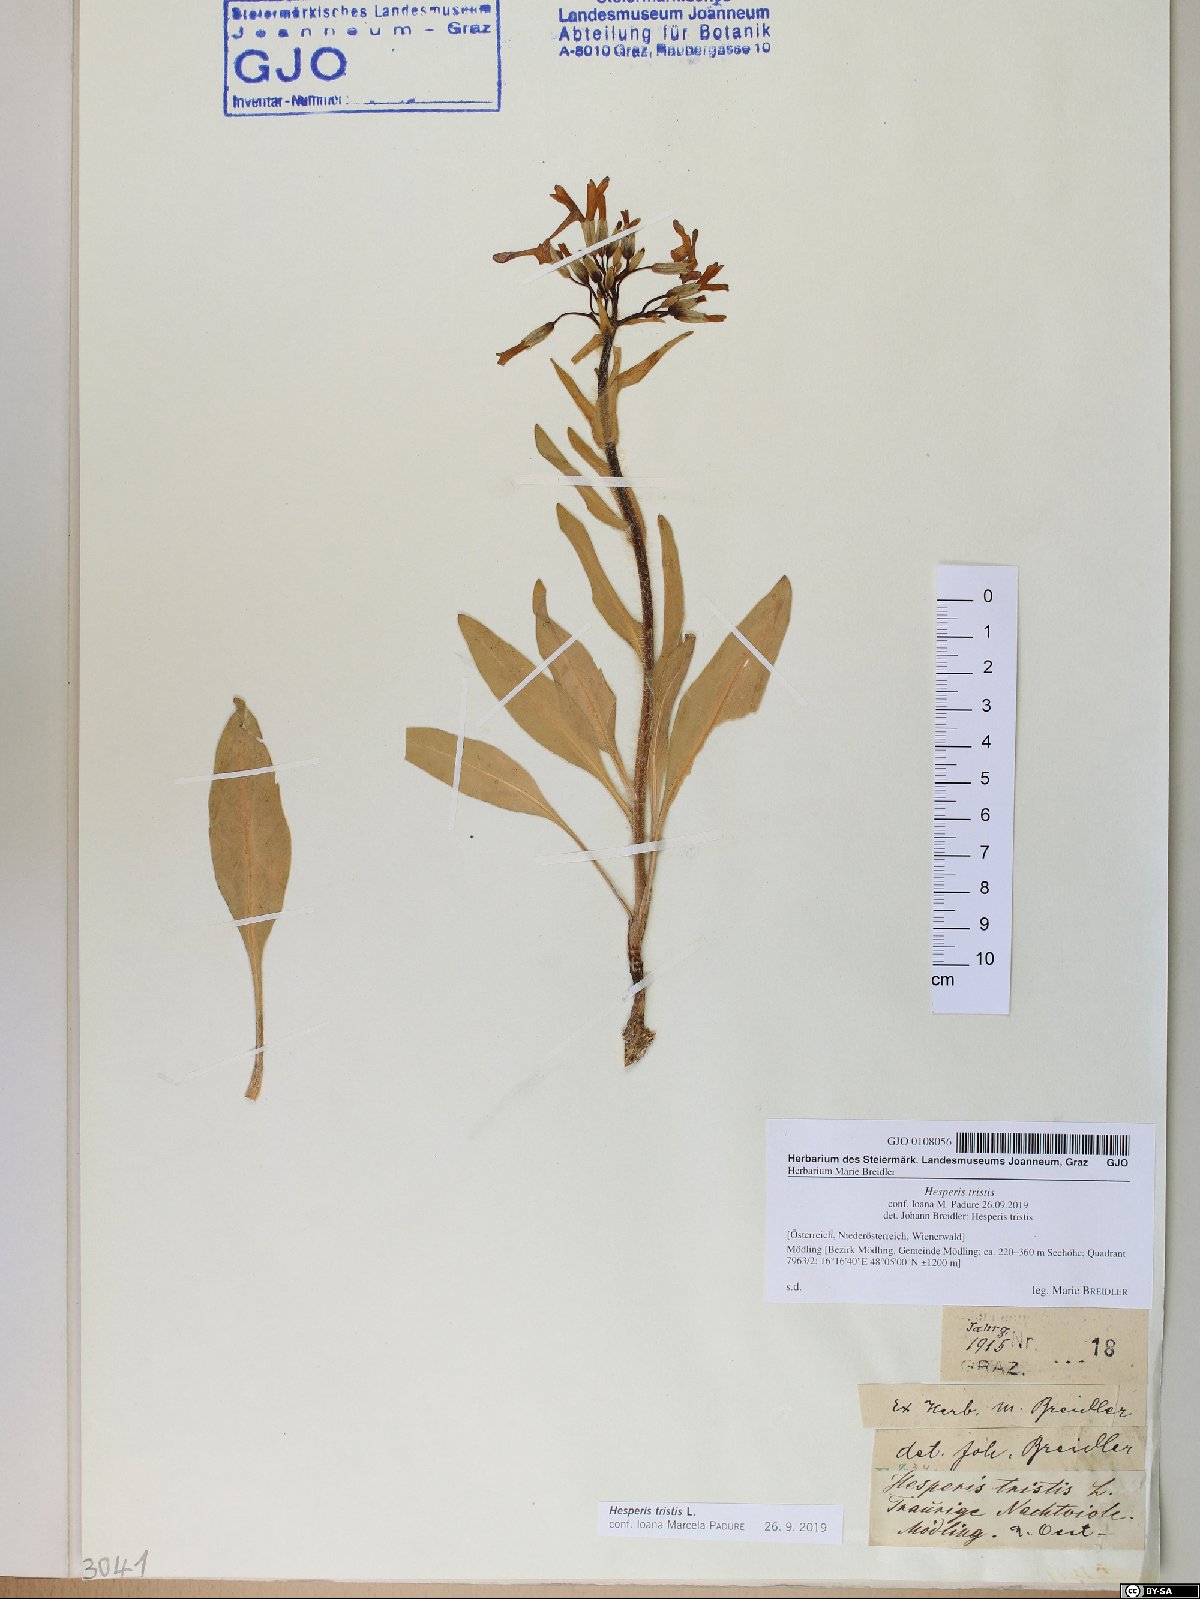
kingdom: Plantae
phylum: Tracheophyta
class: Magnoliopsida
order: Brassicales
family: Brassicaceae
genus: Hesperis
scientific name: Hesperis tristis
